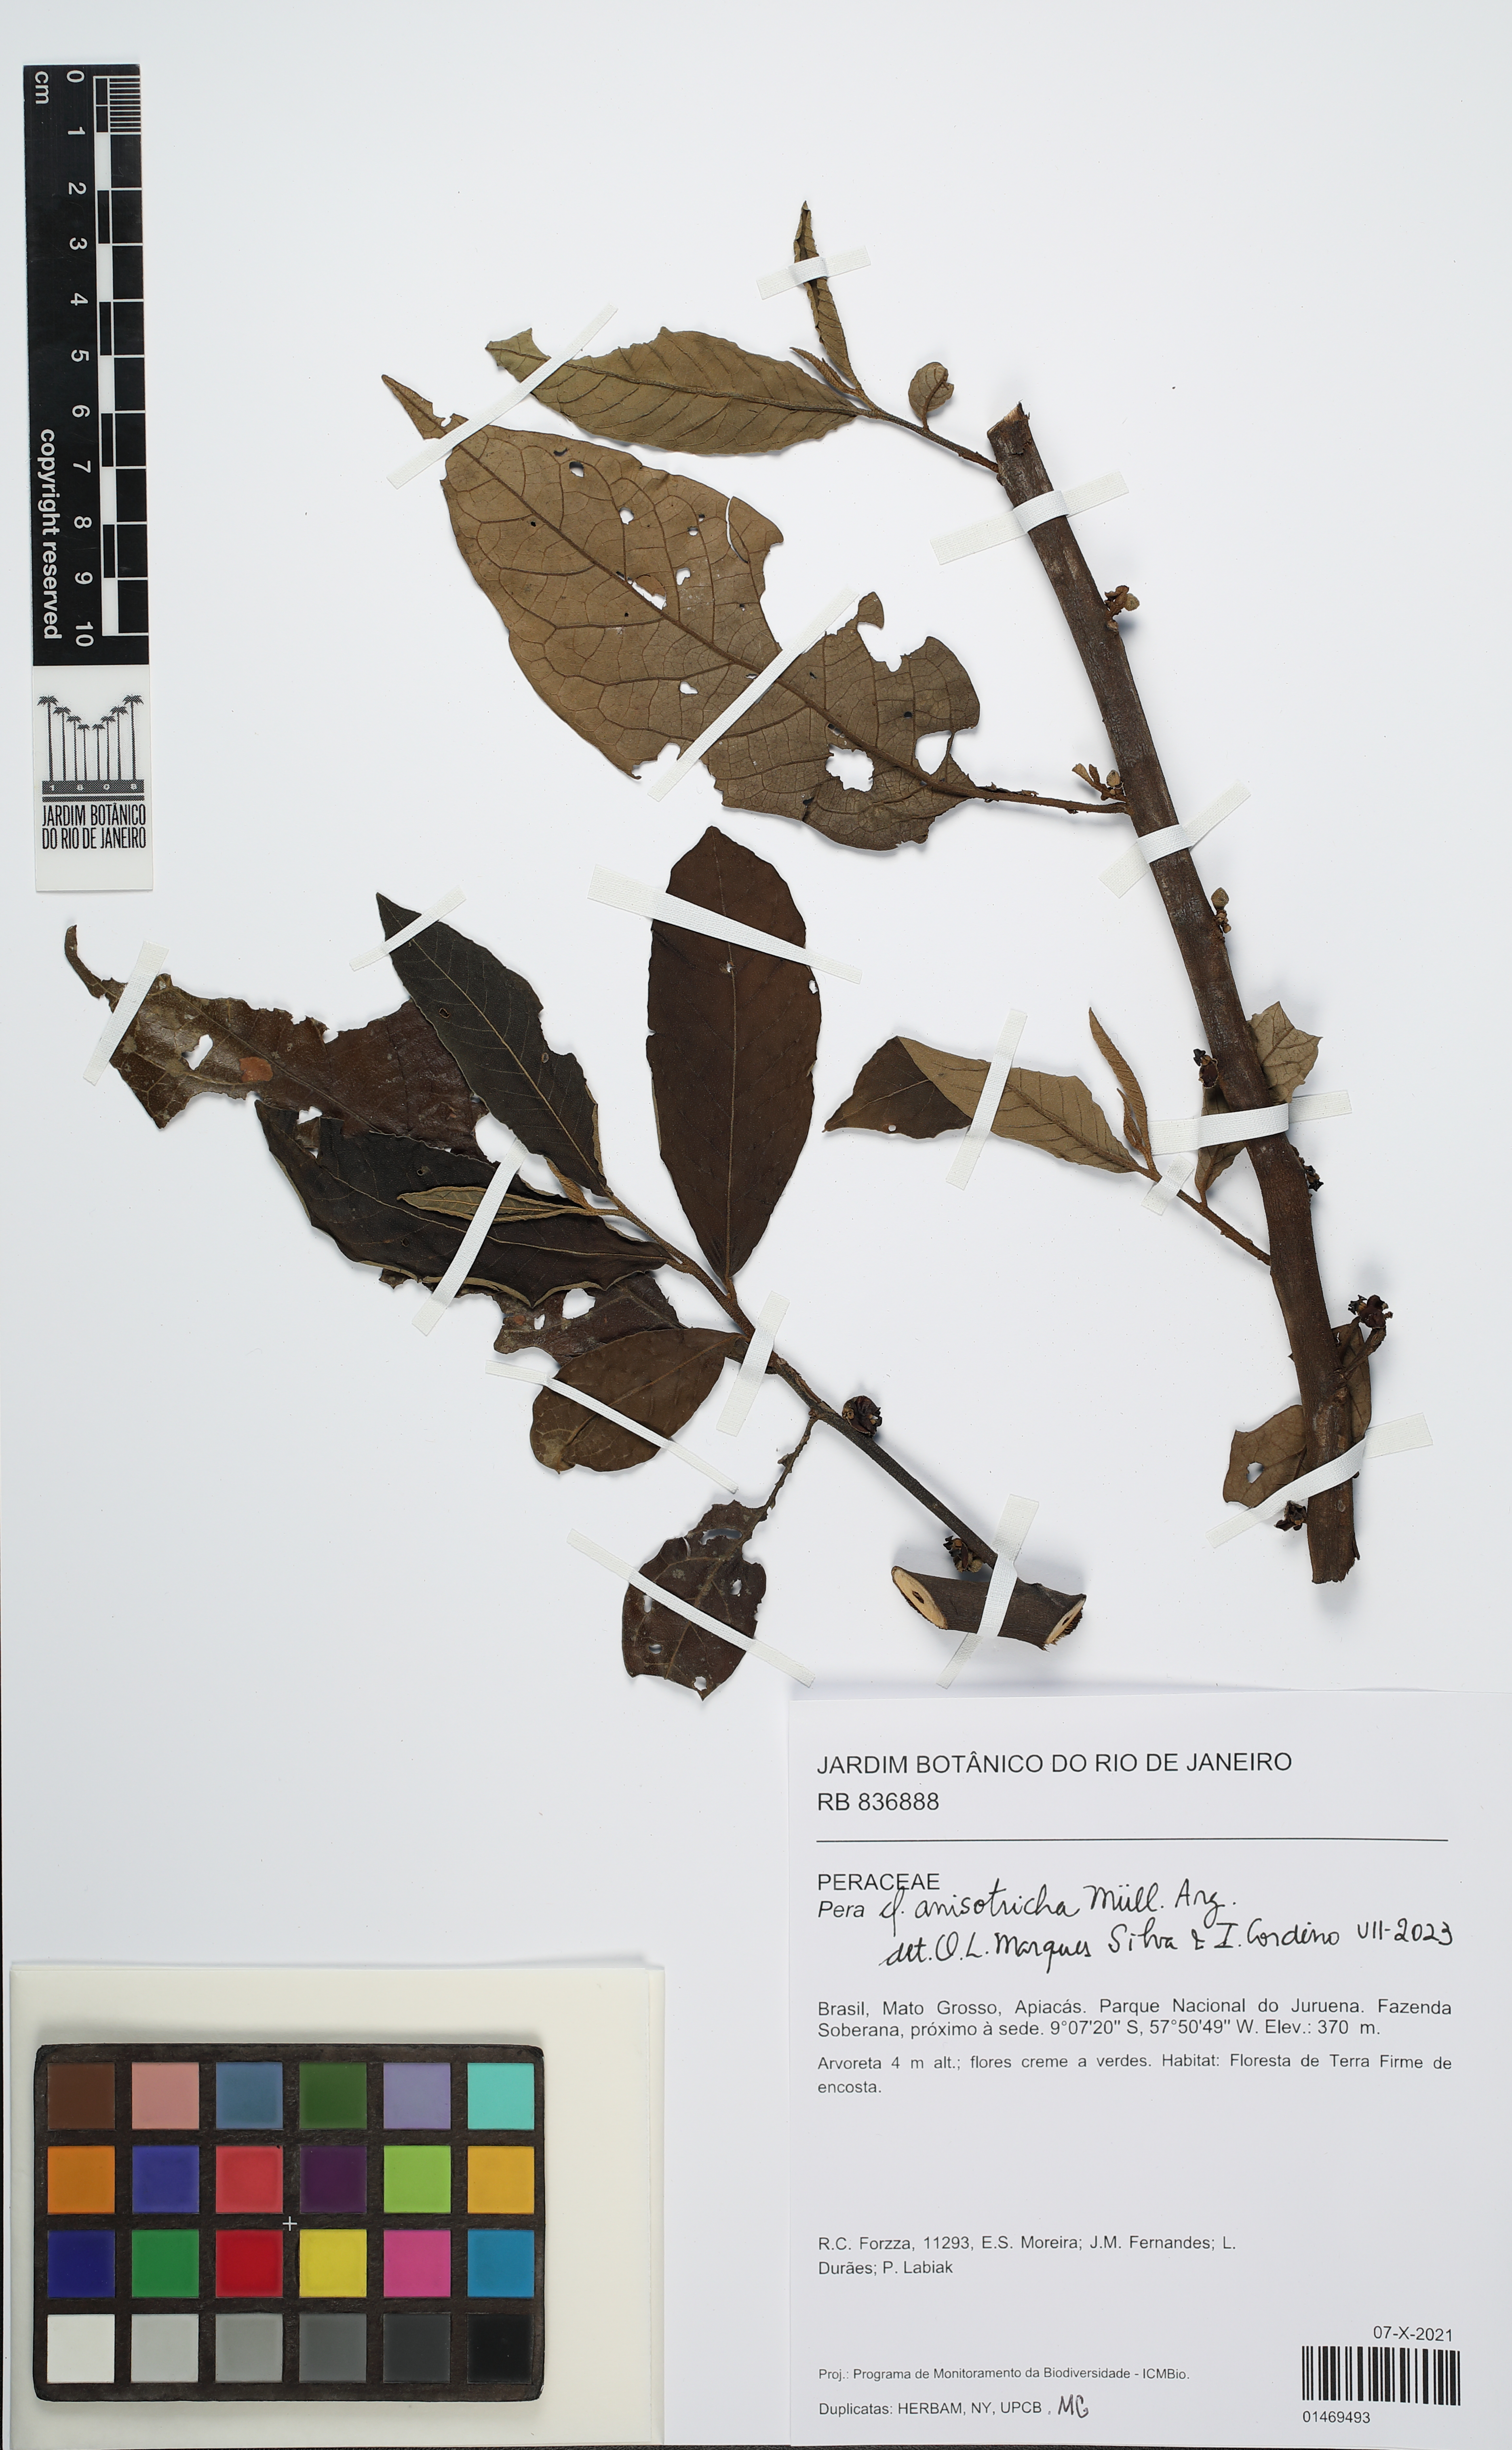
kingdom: Plantae
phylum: Tracheophyta
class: Magnoliopsida
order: Malpighiales
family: Peraceae
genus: Pera
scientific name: Pera anisotricha
